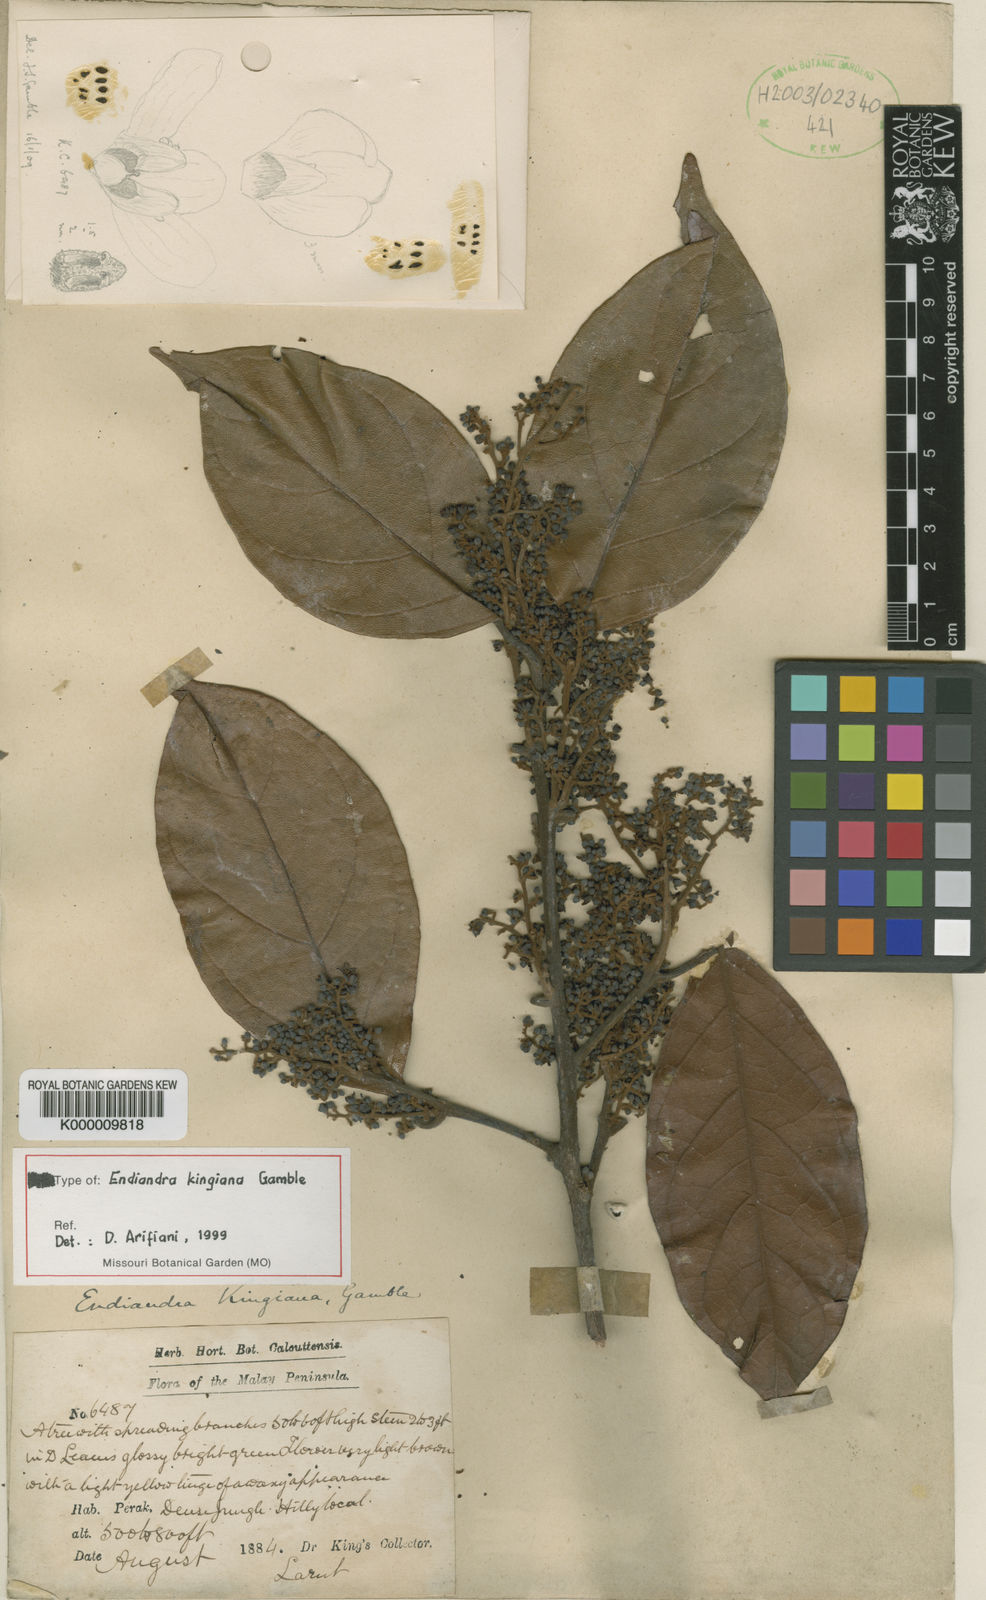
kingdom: Plantae
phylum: Tracheophyta
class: Magnoliopsida
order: Laurales
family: Lauraceae
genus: Endiandra
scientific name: Endiandra kingiana
